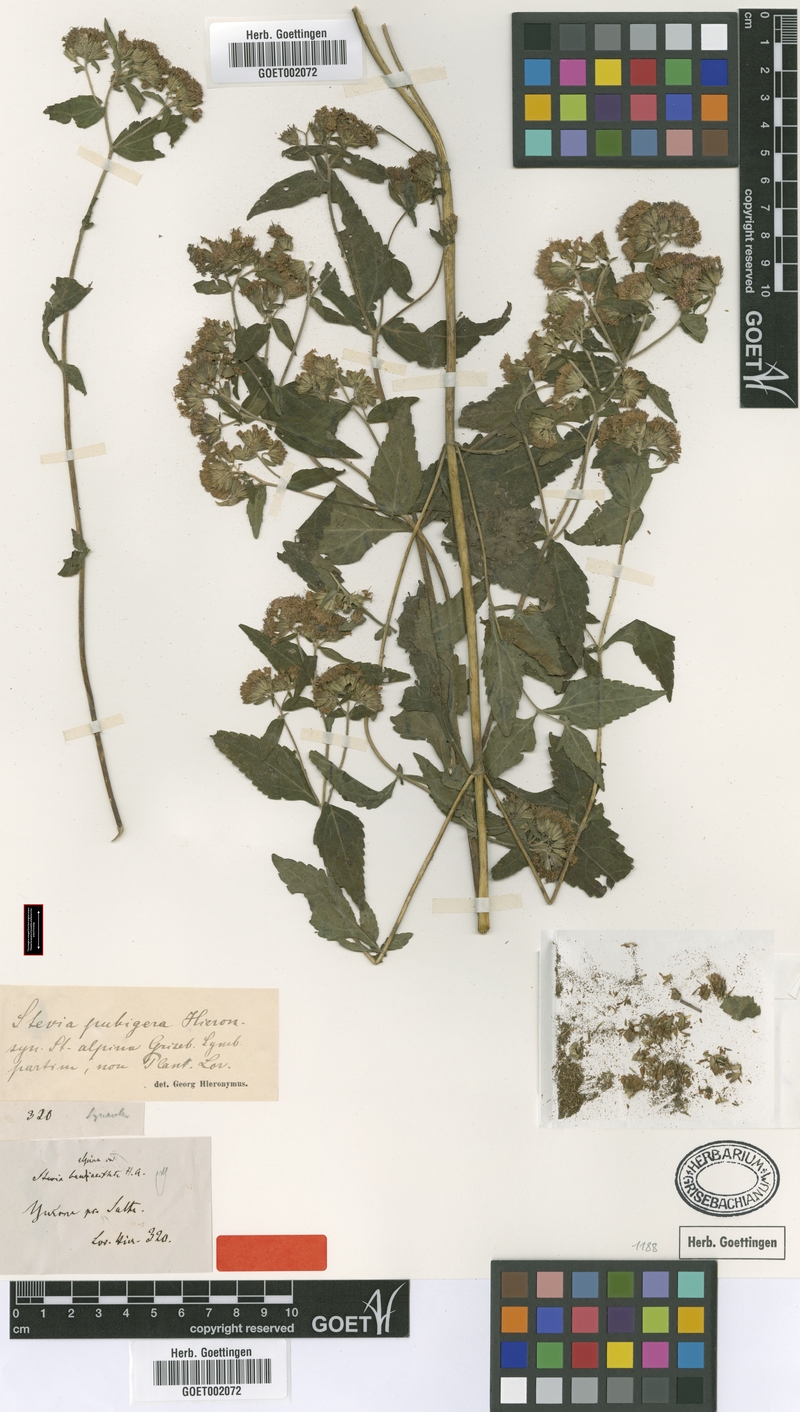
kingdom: Plantae
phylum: Tracheophyta
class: Magnoliopsida
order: Asterales
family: Asteraceae
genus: Stevia
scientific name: Stevia breviaristata
